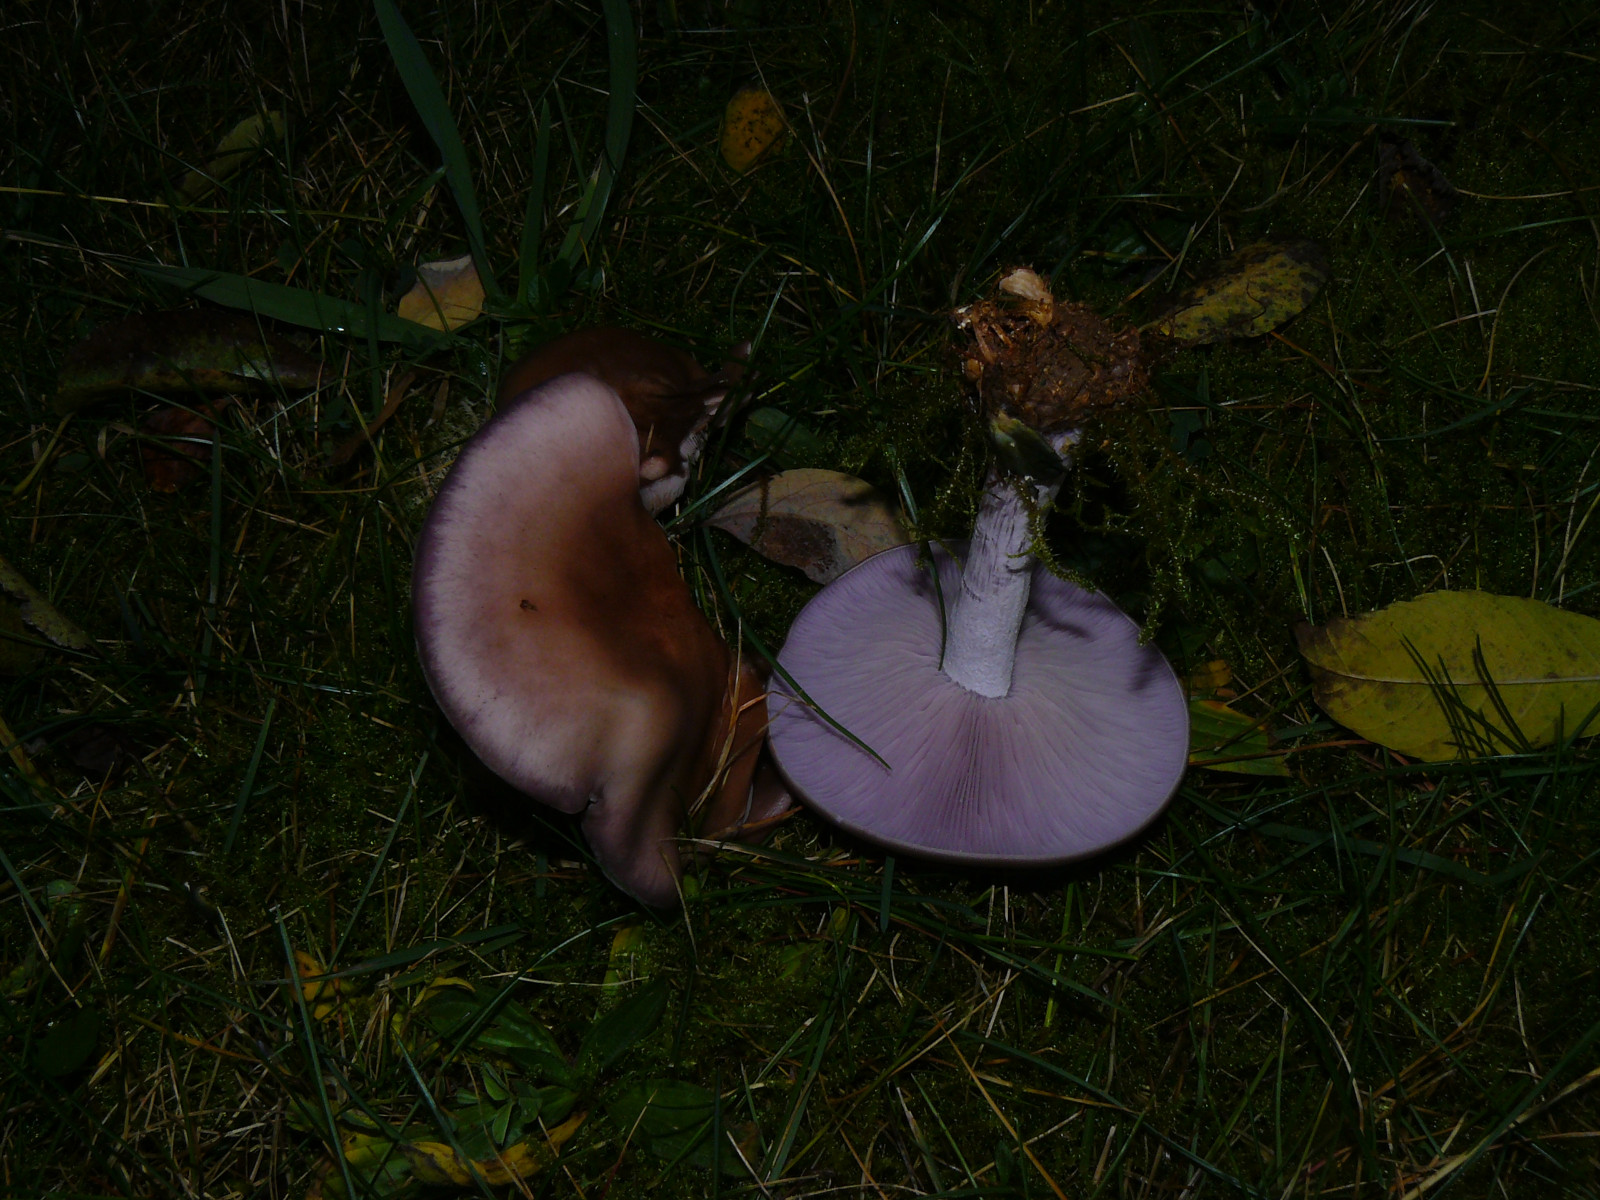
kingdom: Fungi
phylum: Basidiomycota
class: Agaricomycetes
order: Agaricales
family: Tricholomataceae
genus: Lepista
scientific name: Lepista nuda
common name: violet hekseringshat
